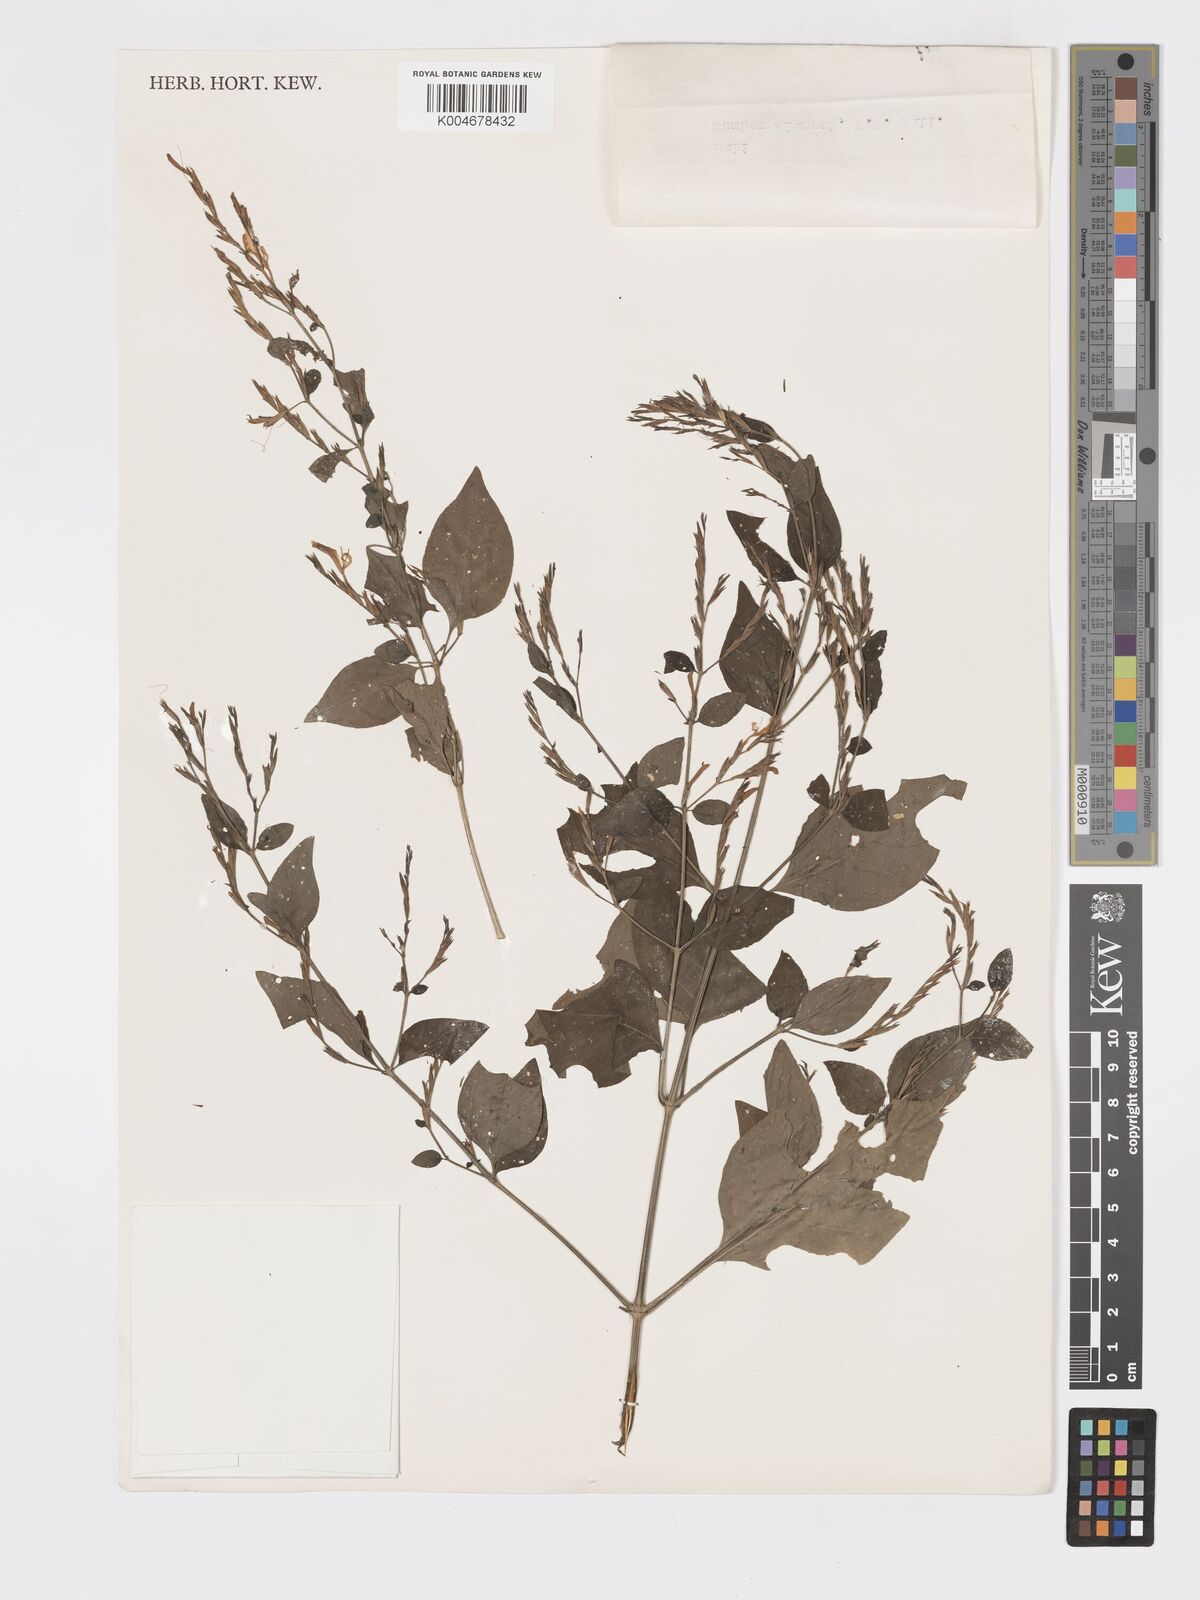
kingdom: Plantae
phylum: Tracheophyta
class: Magnoliopsida
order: Lamiales
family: Acanthaceae
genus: Hypoestes
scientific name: Hypoestes
